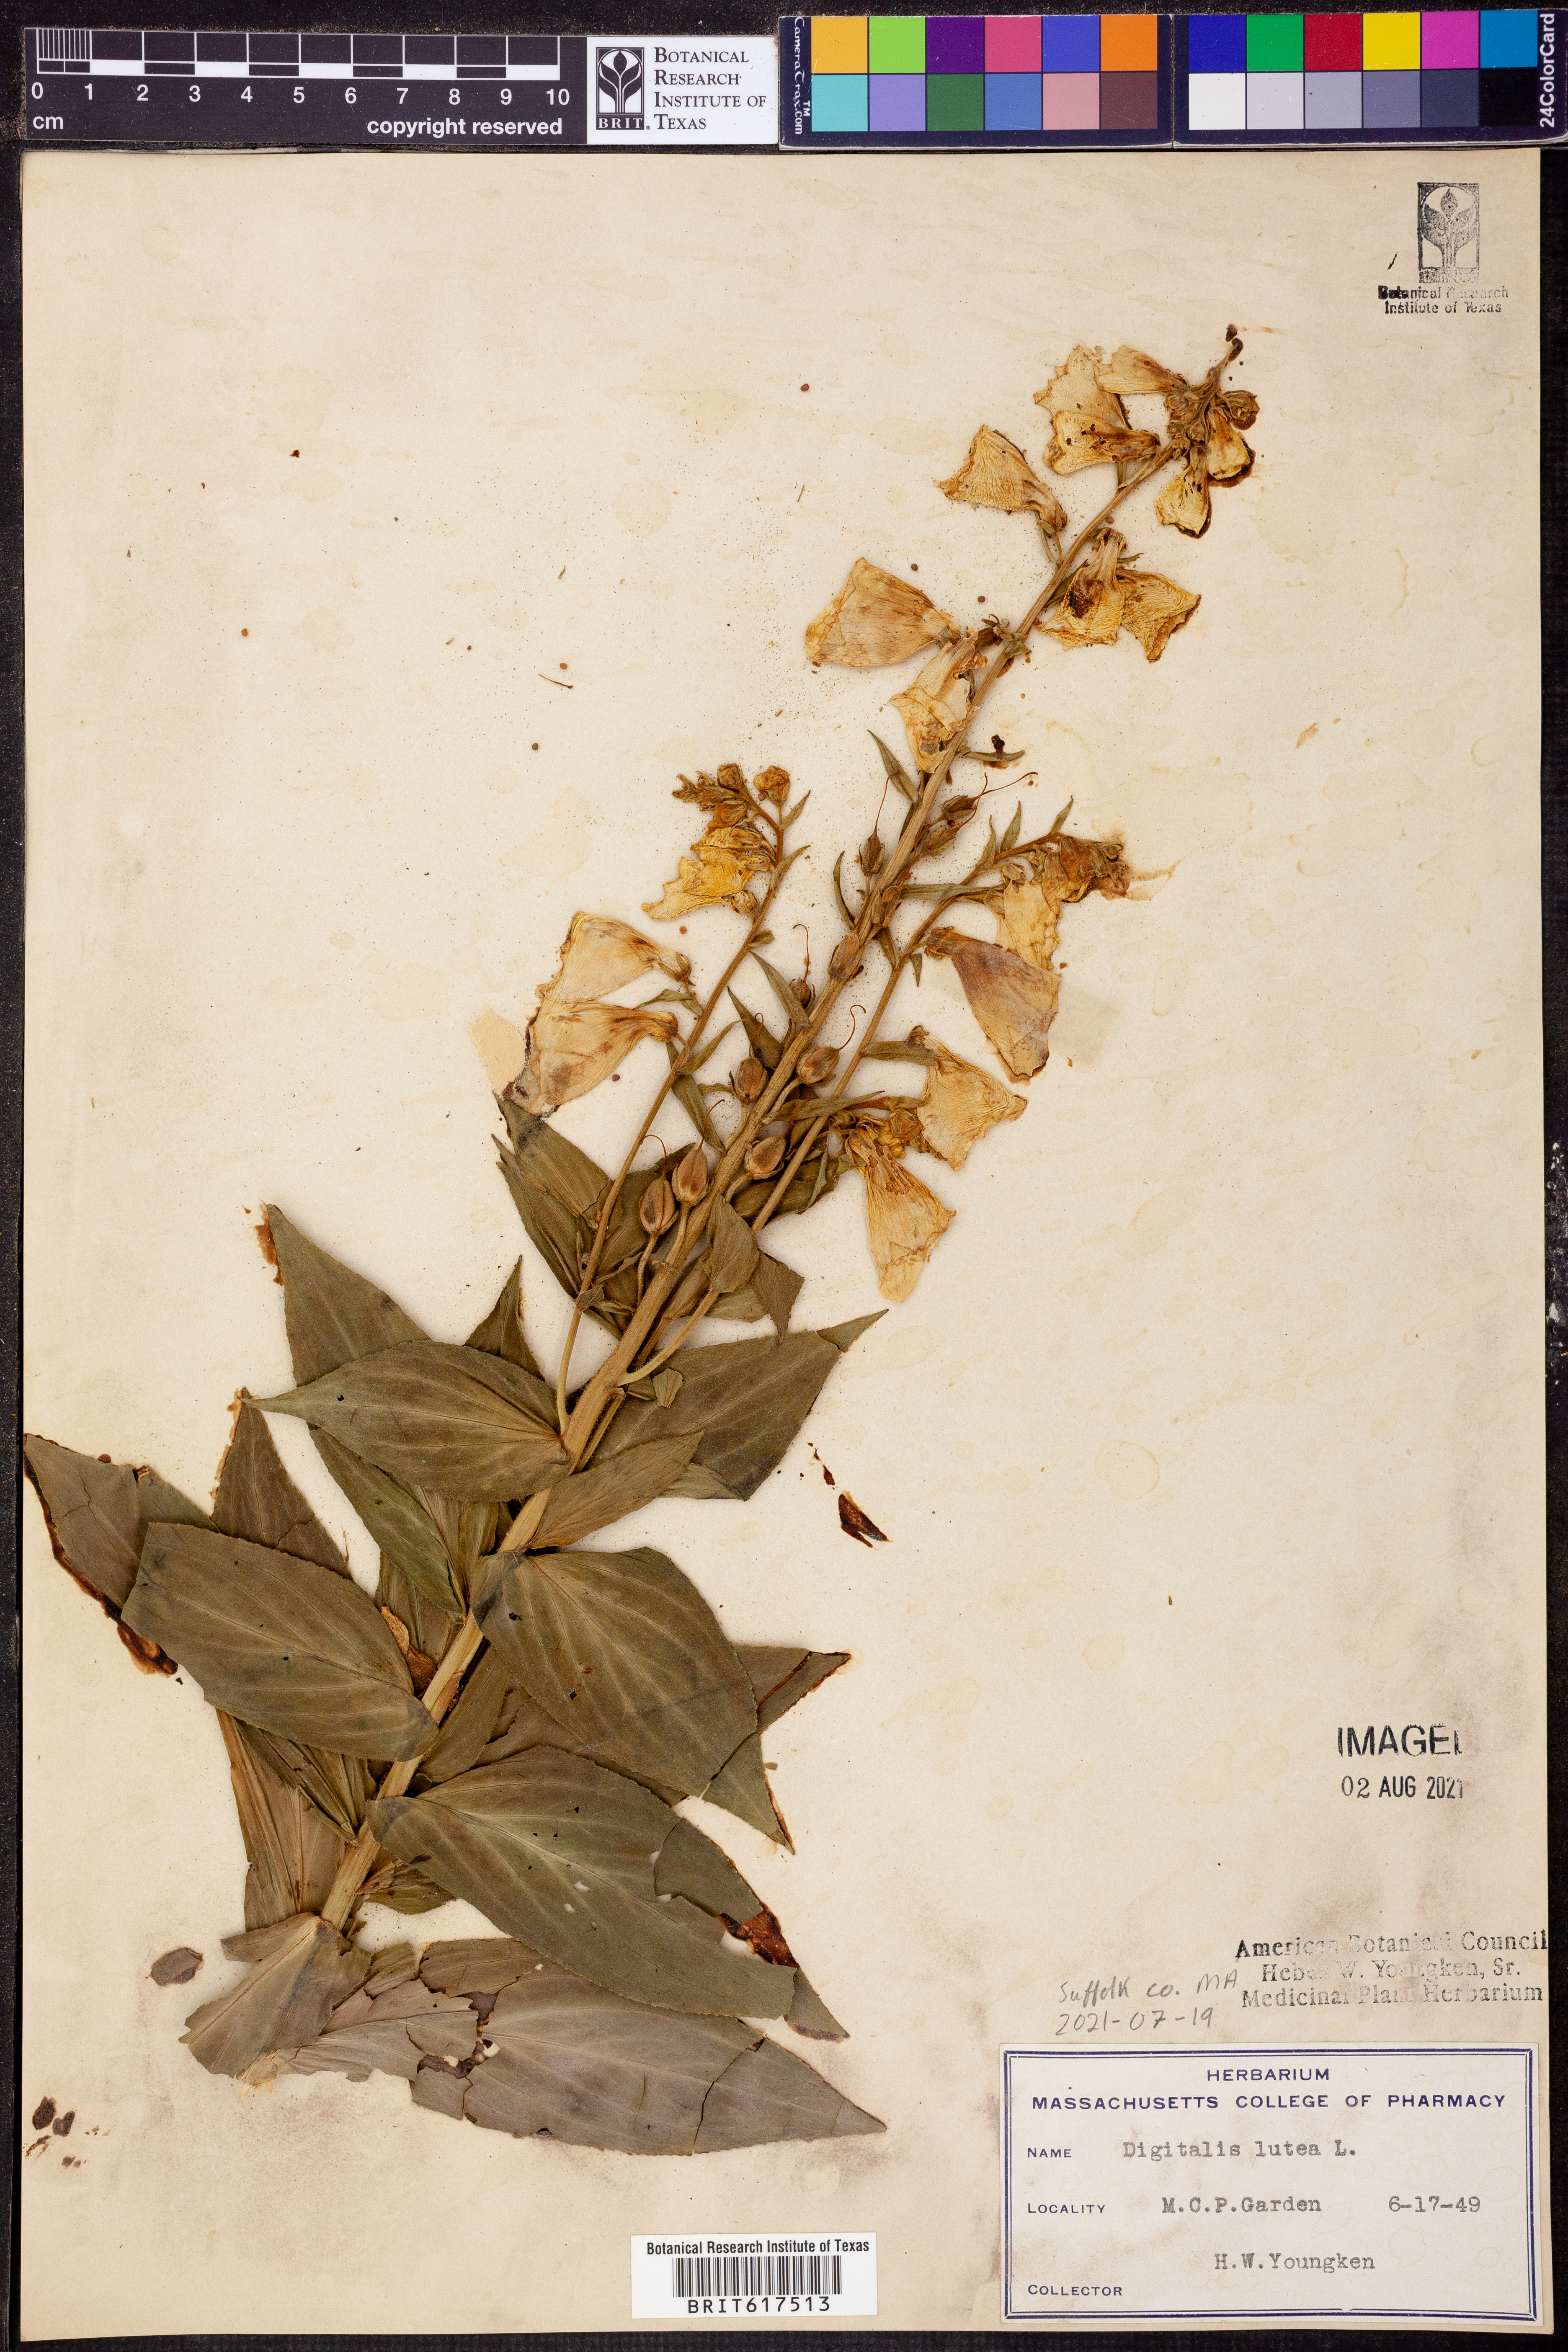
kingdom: Plantae
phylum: Tracheophyta
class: Magnoliopsida
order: Lamiales
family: Plantaginaceae
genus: Digitalis
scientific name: Digitalis lutea
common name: Straw foxglove
